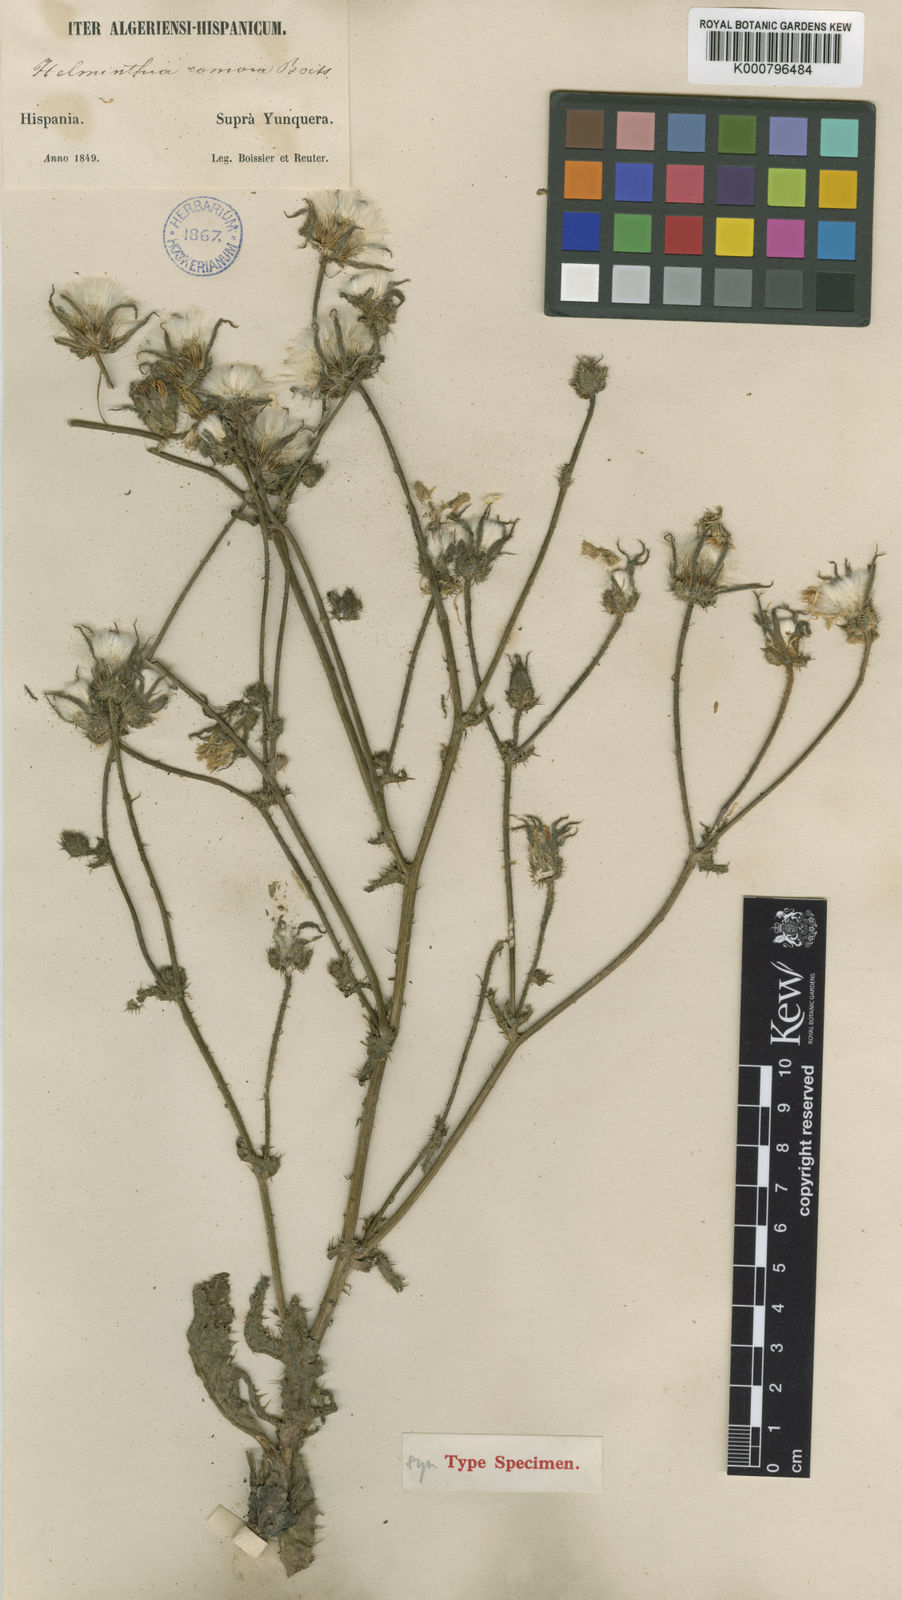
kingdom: Plantae
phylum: Tracheophyta
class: Magnoliopsida
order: Asterales
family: Asteraceae
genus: Helminthotheca
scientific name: Helminthotheca comosa
